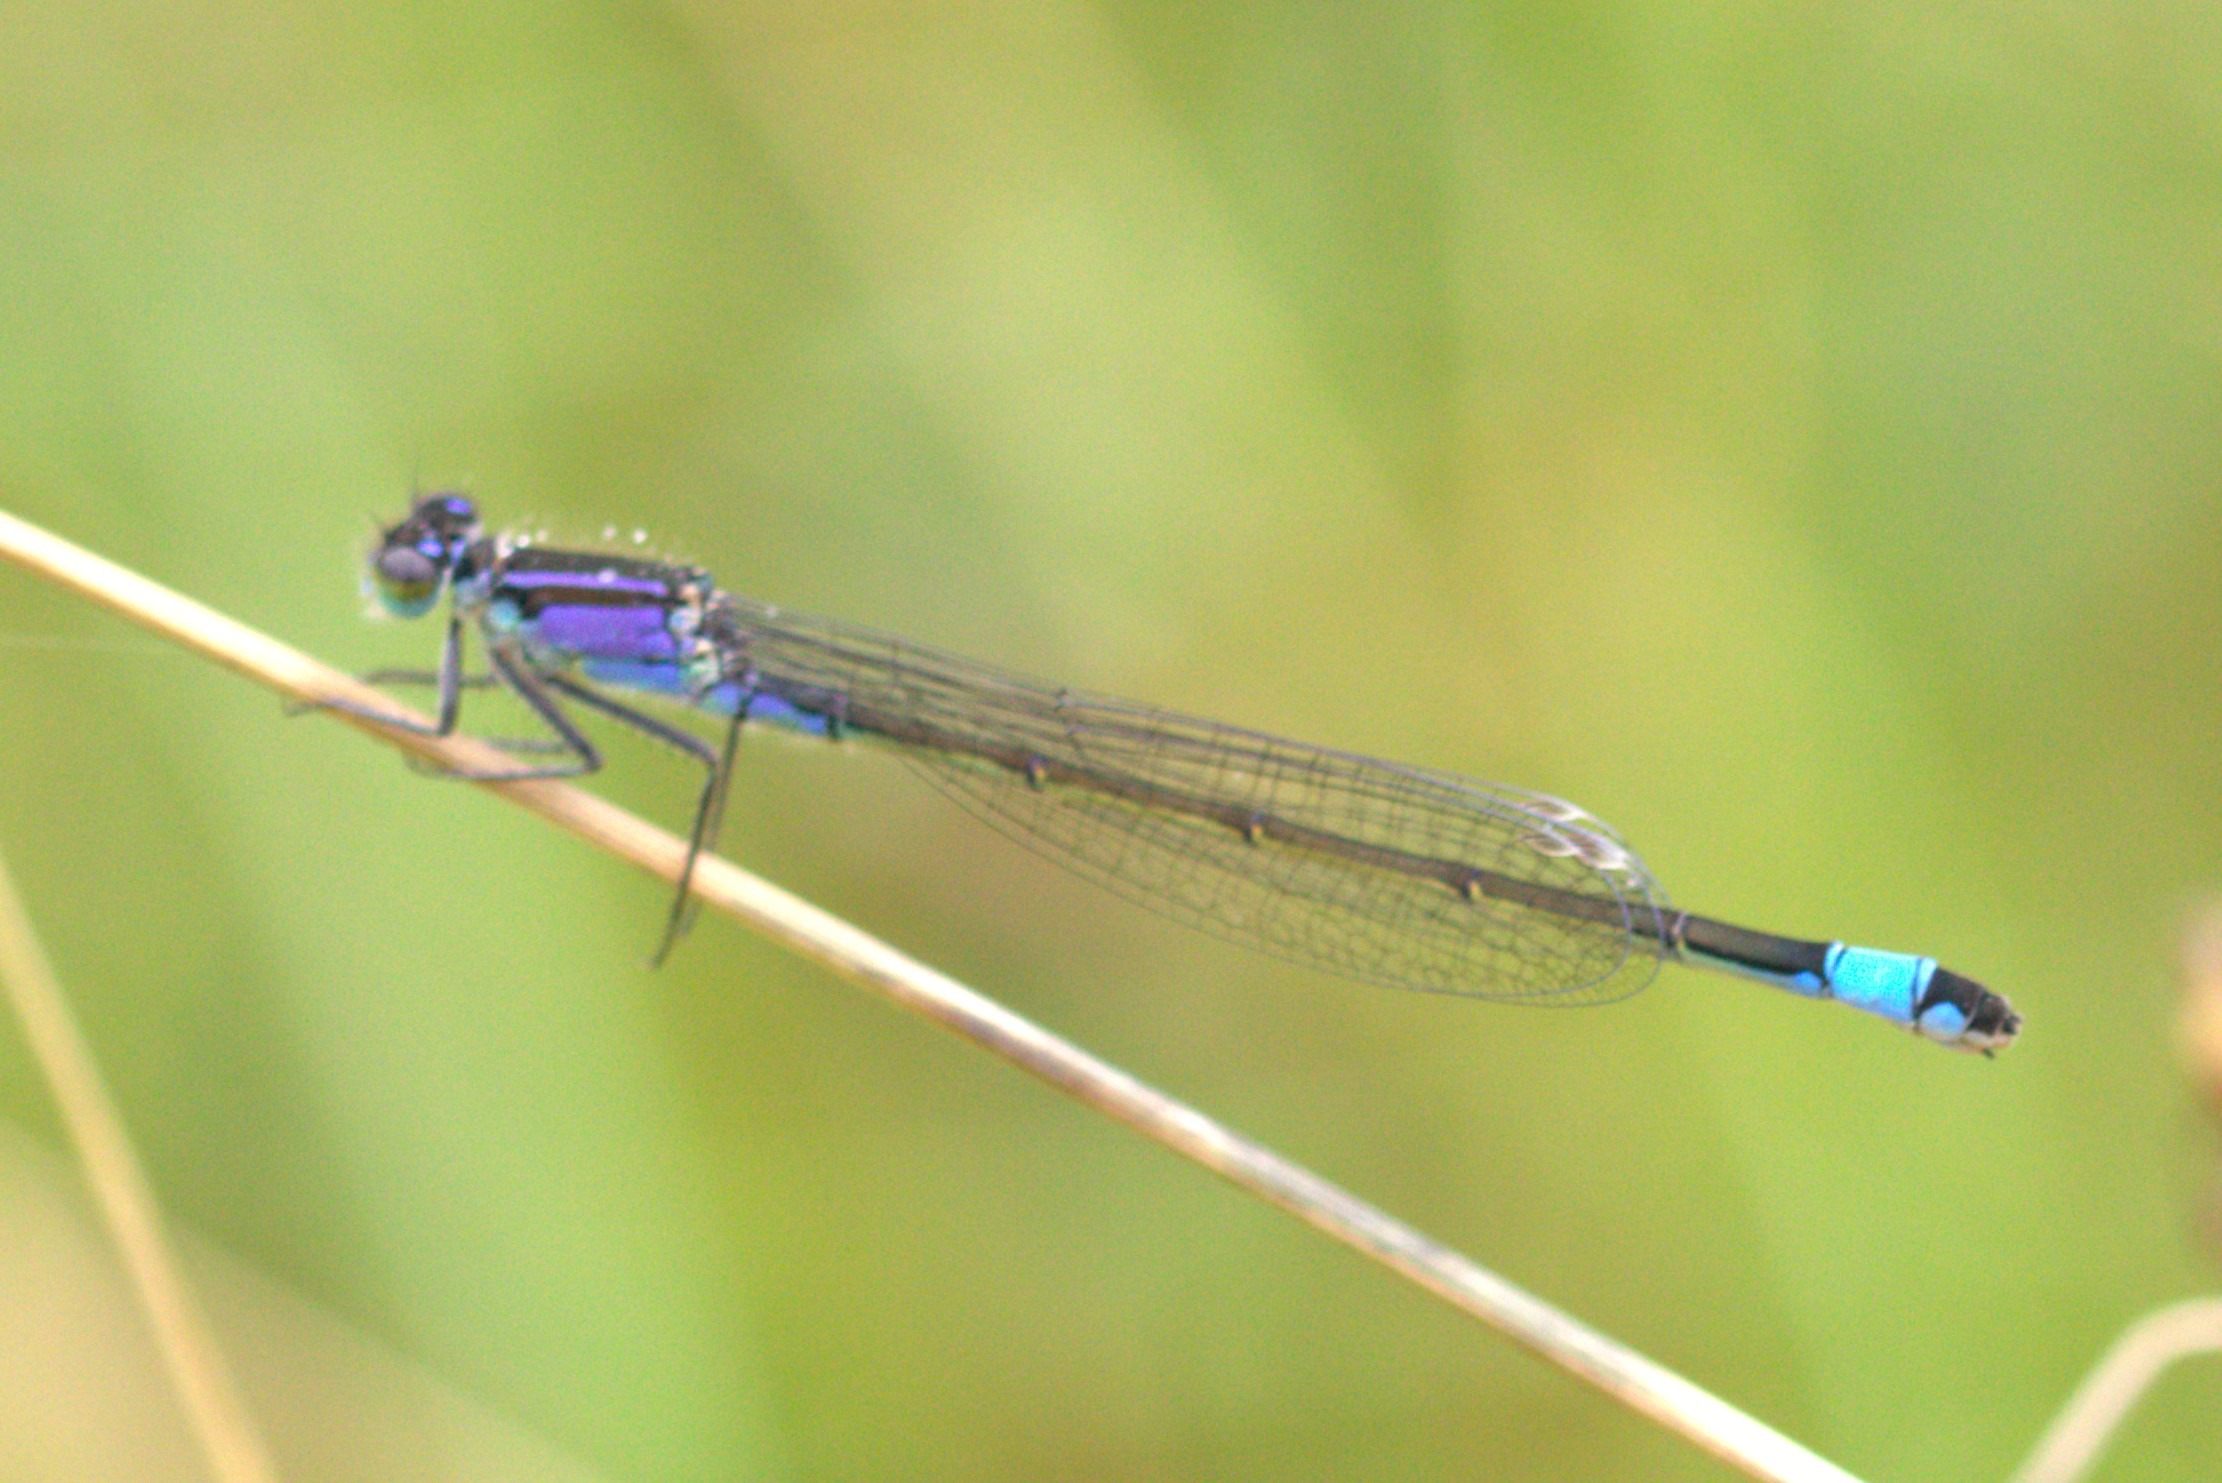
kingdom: Animalia
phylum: Arthropoda
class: Insecta
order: Odonata
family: Coenagrionidae
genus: Ischnura
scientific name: Ischnura elegans
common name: Stor farvevandnymfe
